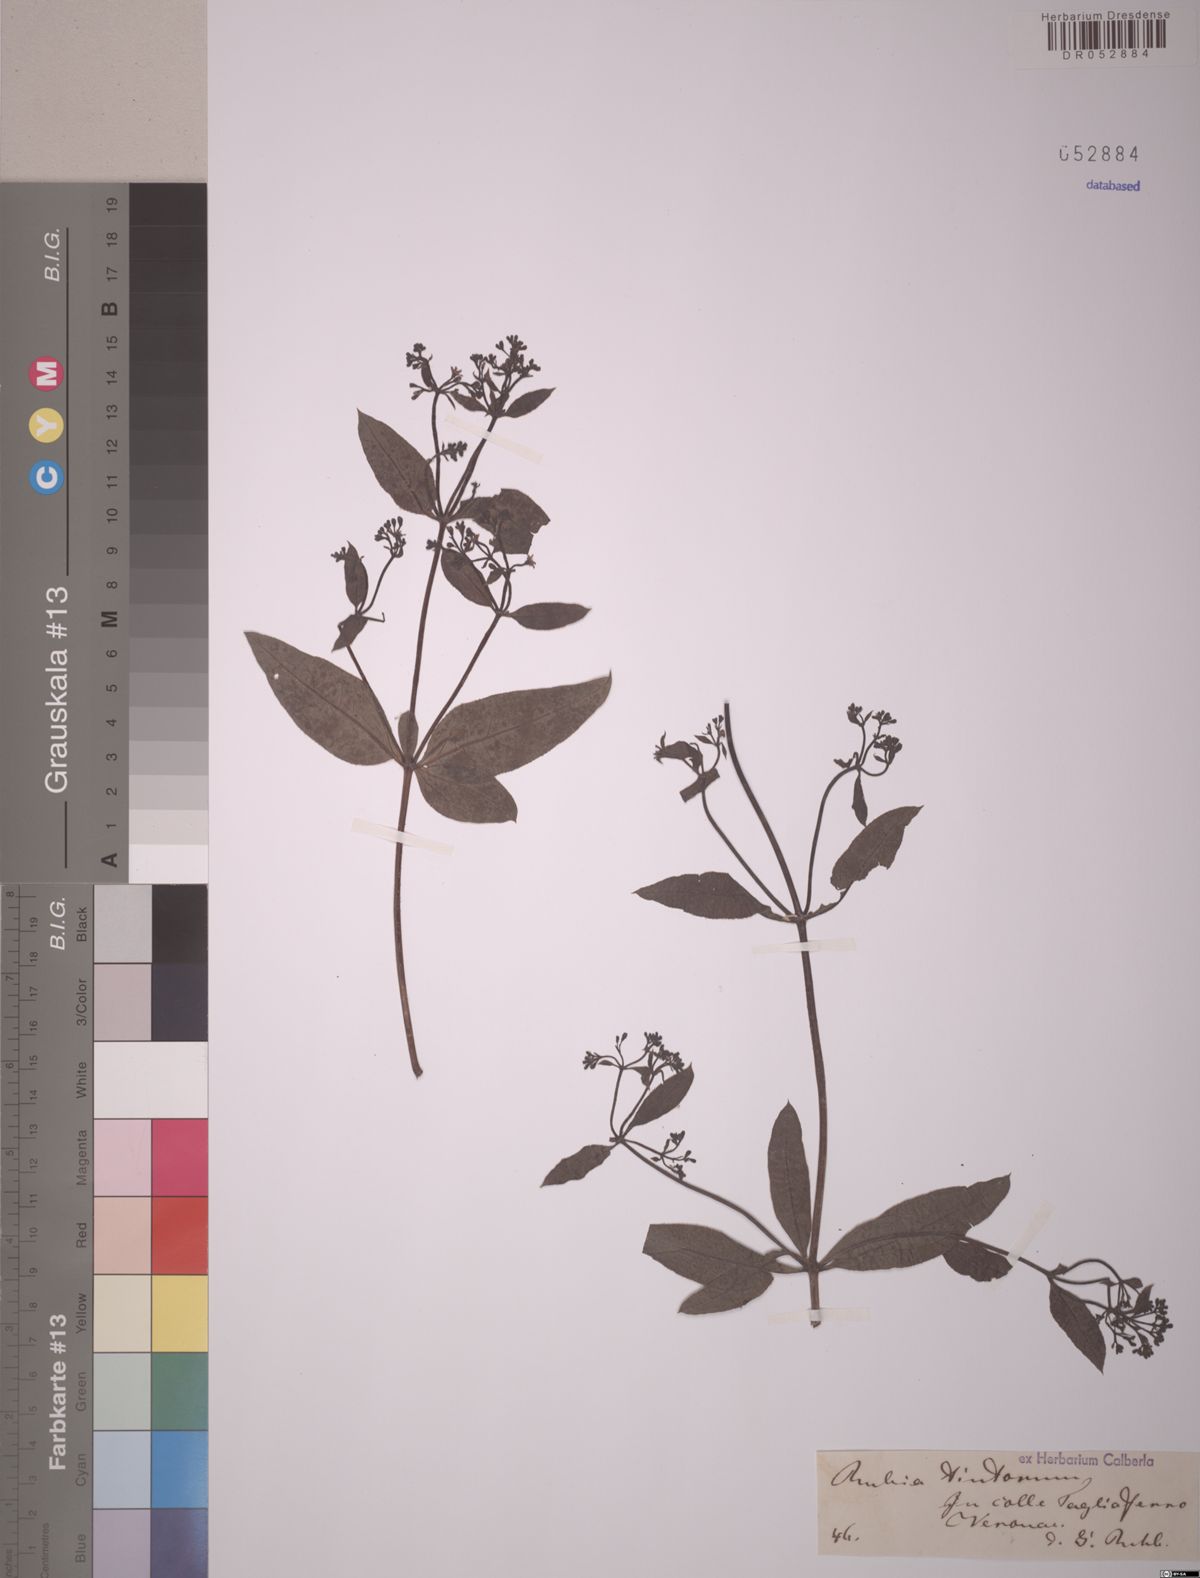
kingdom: Plantae
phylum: Tracheophyta
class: Magnoliopsida
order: Gentianales
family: Rubiaceae
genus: Rubia
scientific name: Rubia tinctorum
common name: Dyer's madder
